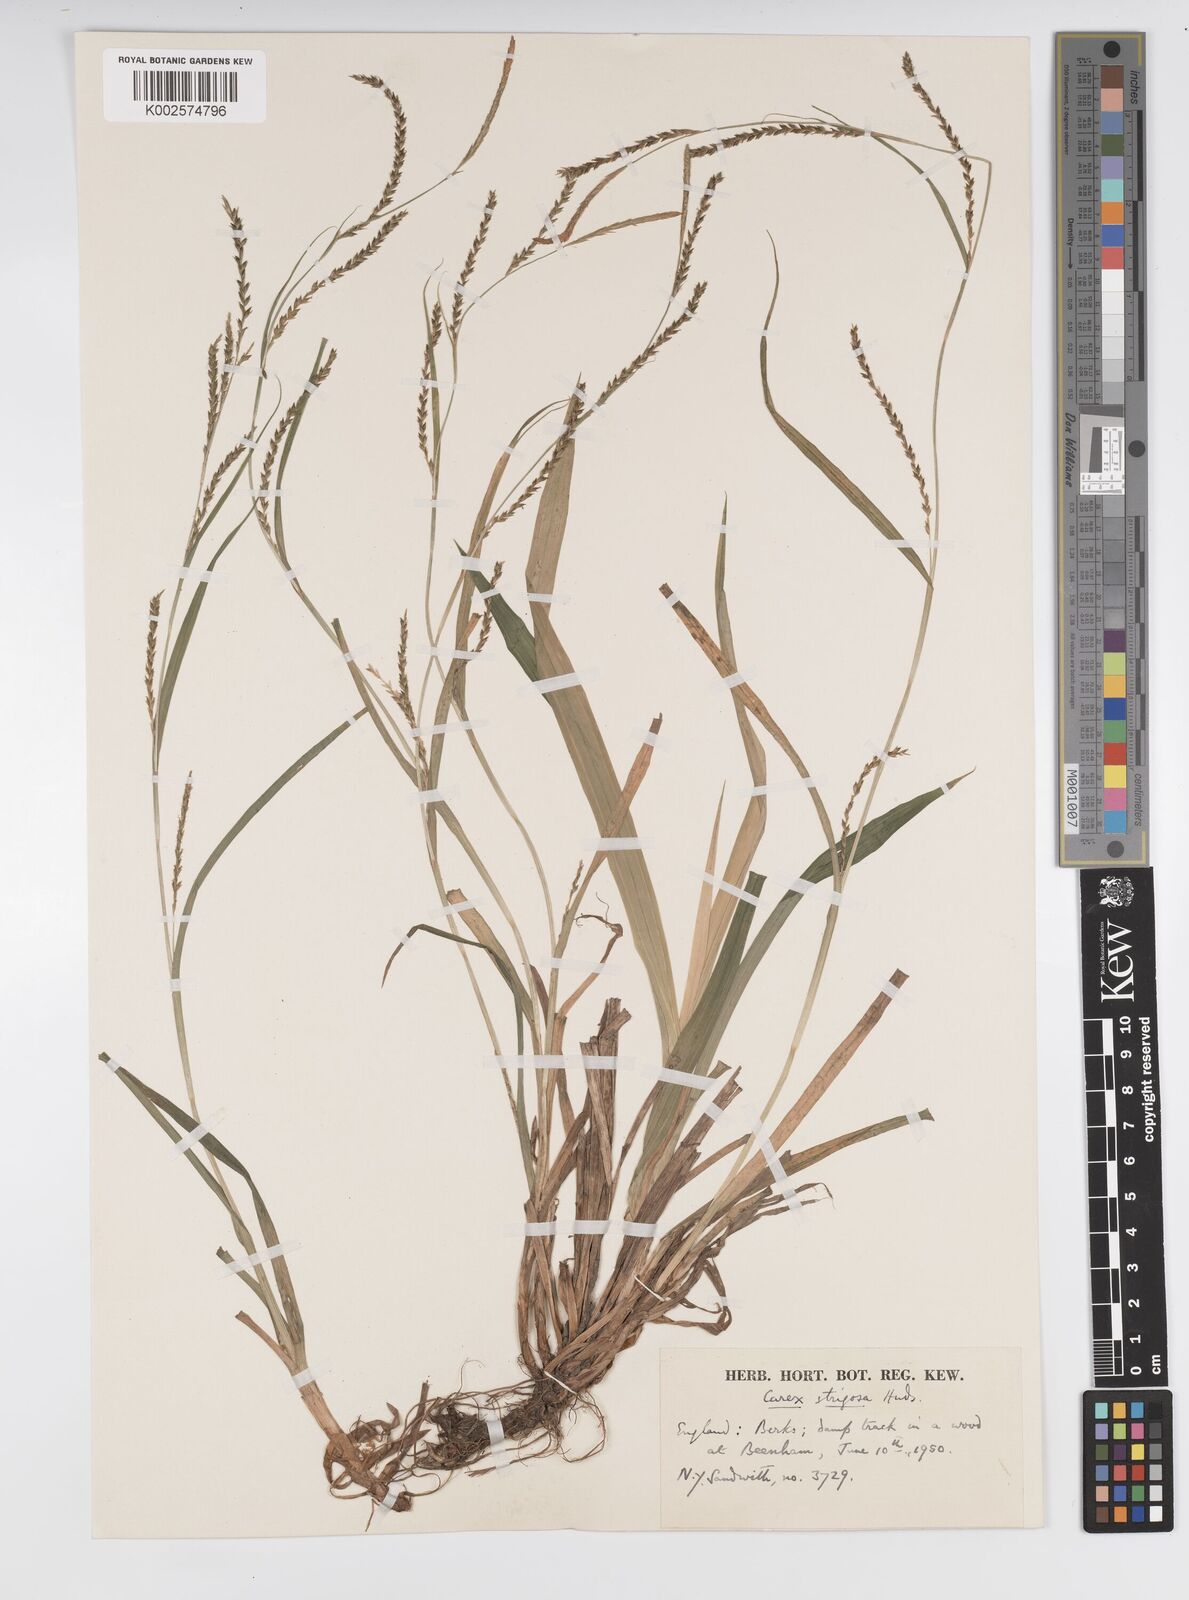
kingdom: Plantae
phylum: Tracheophyta
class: Liliopsida
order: Poales
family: Cyperaceae
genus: Carex
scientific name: Carex strigosa
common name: Thin-spiked wood-sedge
